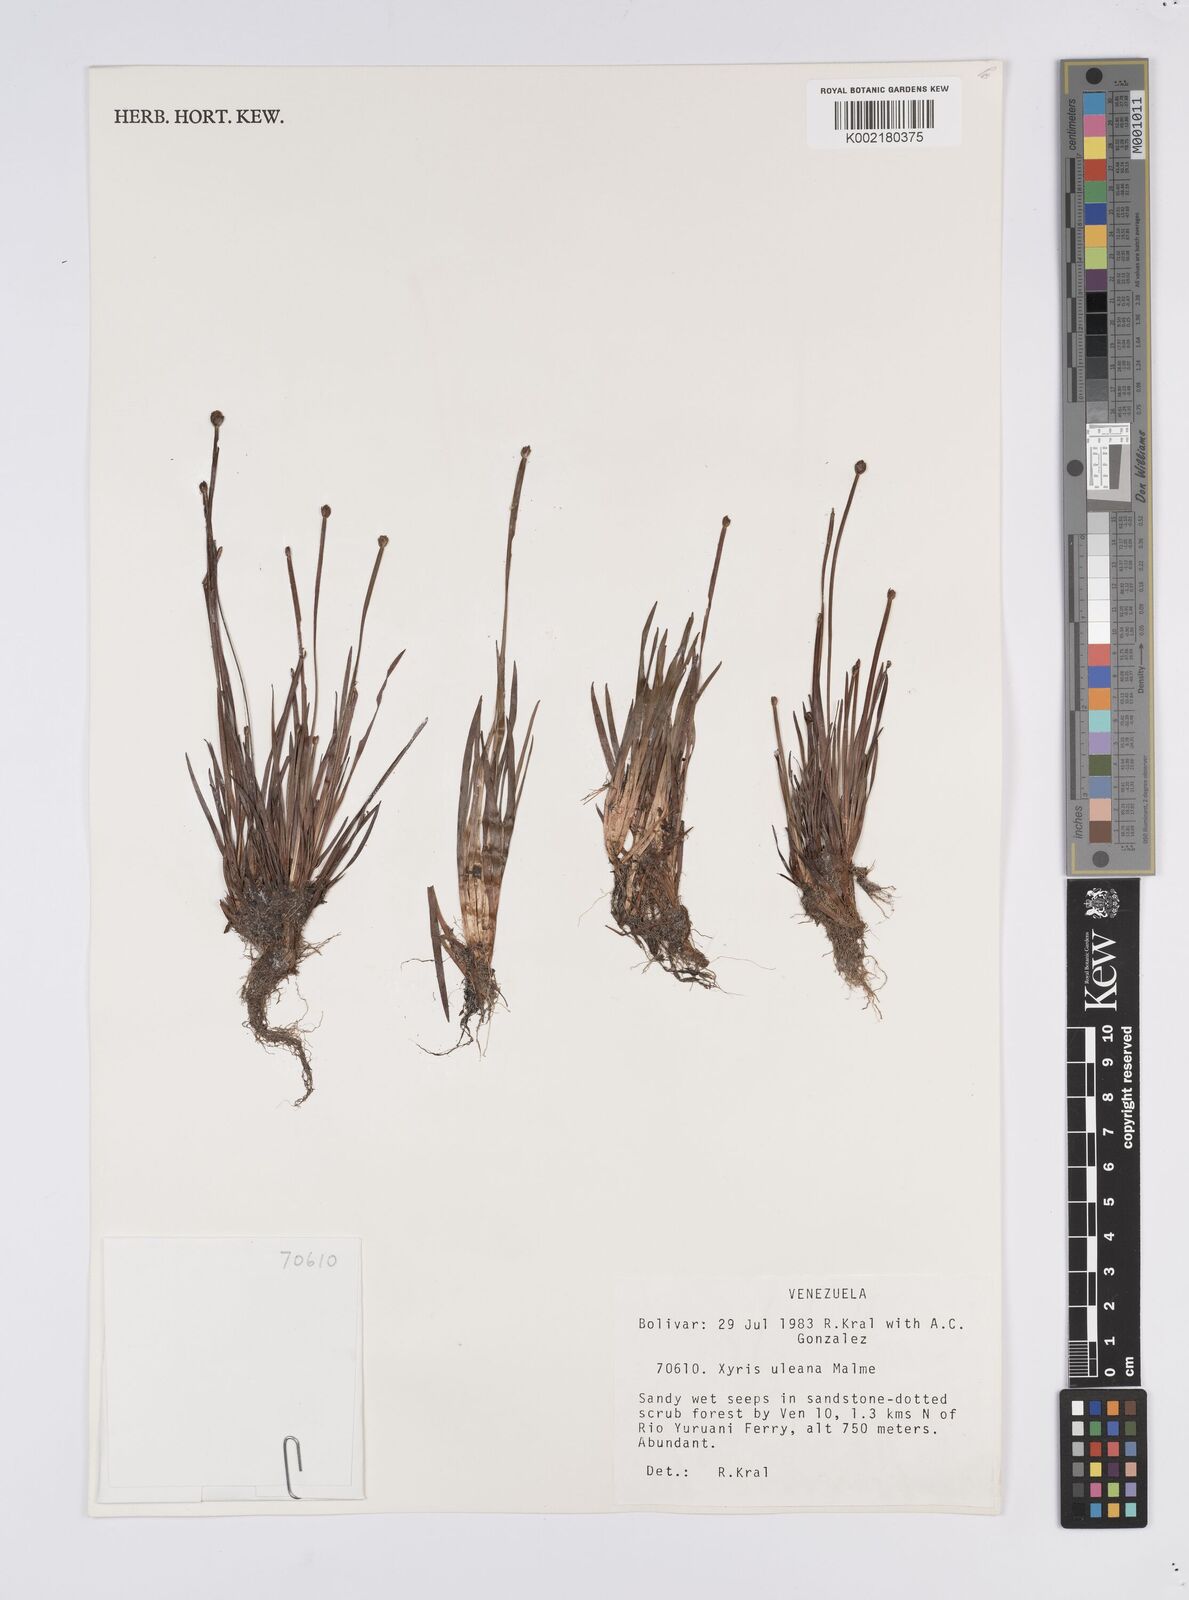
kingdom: Plantae
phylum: Tracheophyta
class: Liliopsida
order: Poales
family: Xyridaceae
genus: Xyris
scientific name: Xyris uleana
